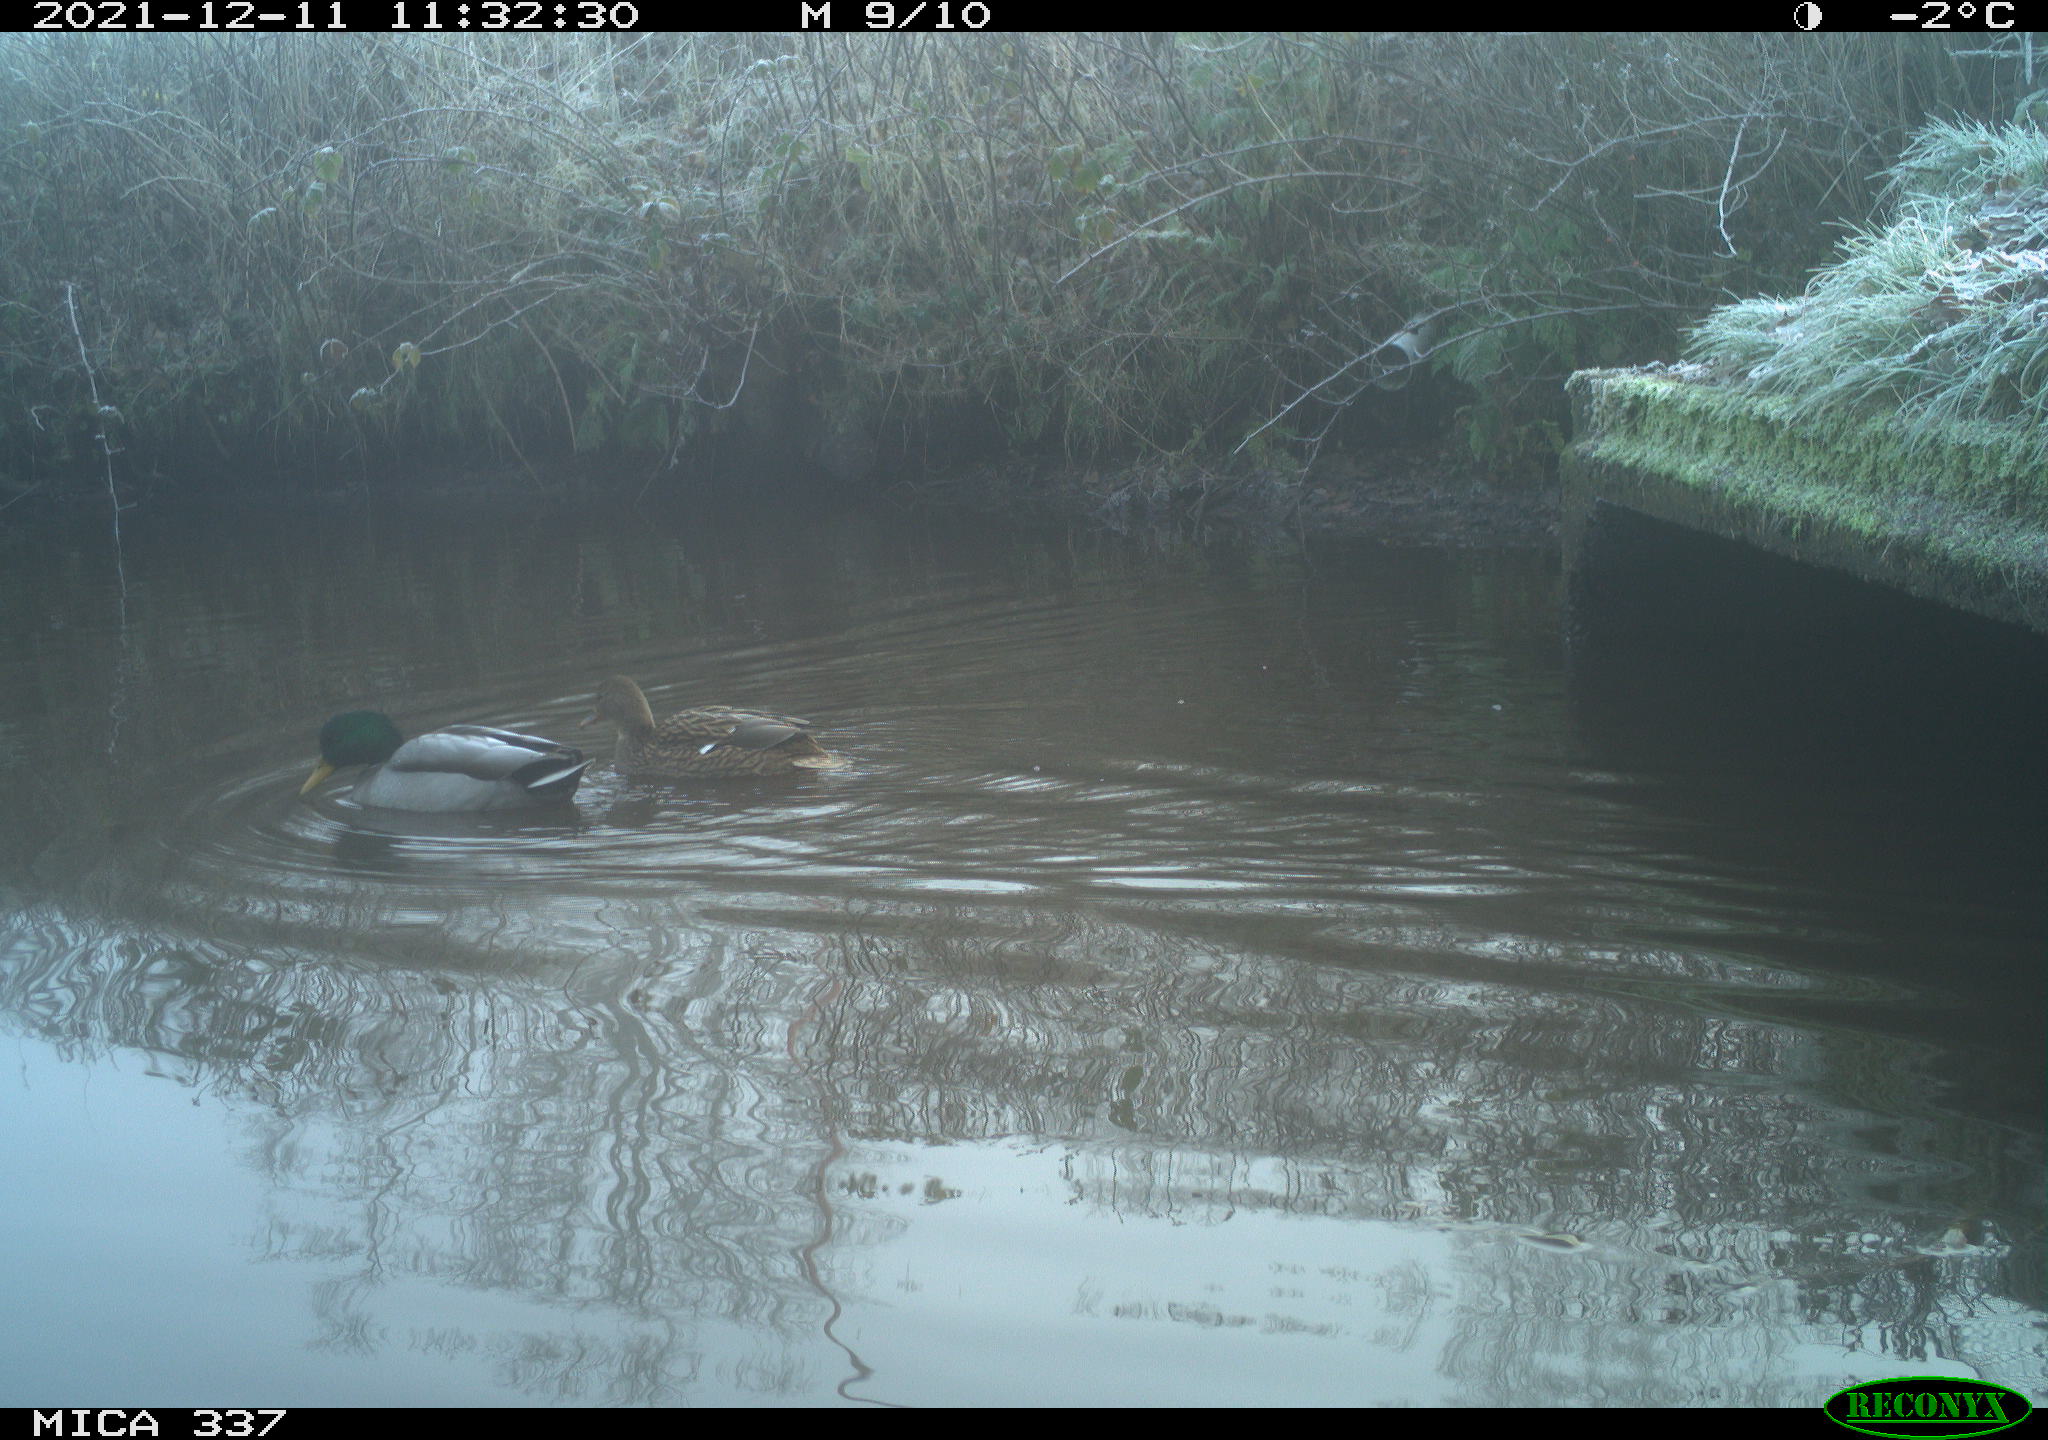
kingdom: Animalia
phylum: Chordata
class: Aves
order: Anseriformes
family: Anatidae
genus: Anas
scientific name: Anas platyrhynchos
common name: Mallard
